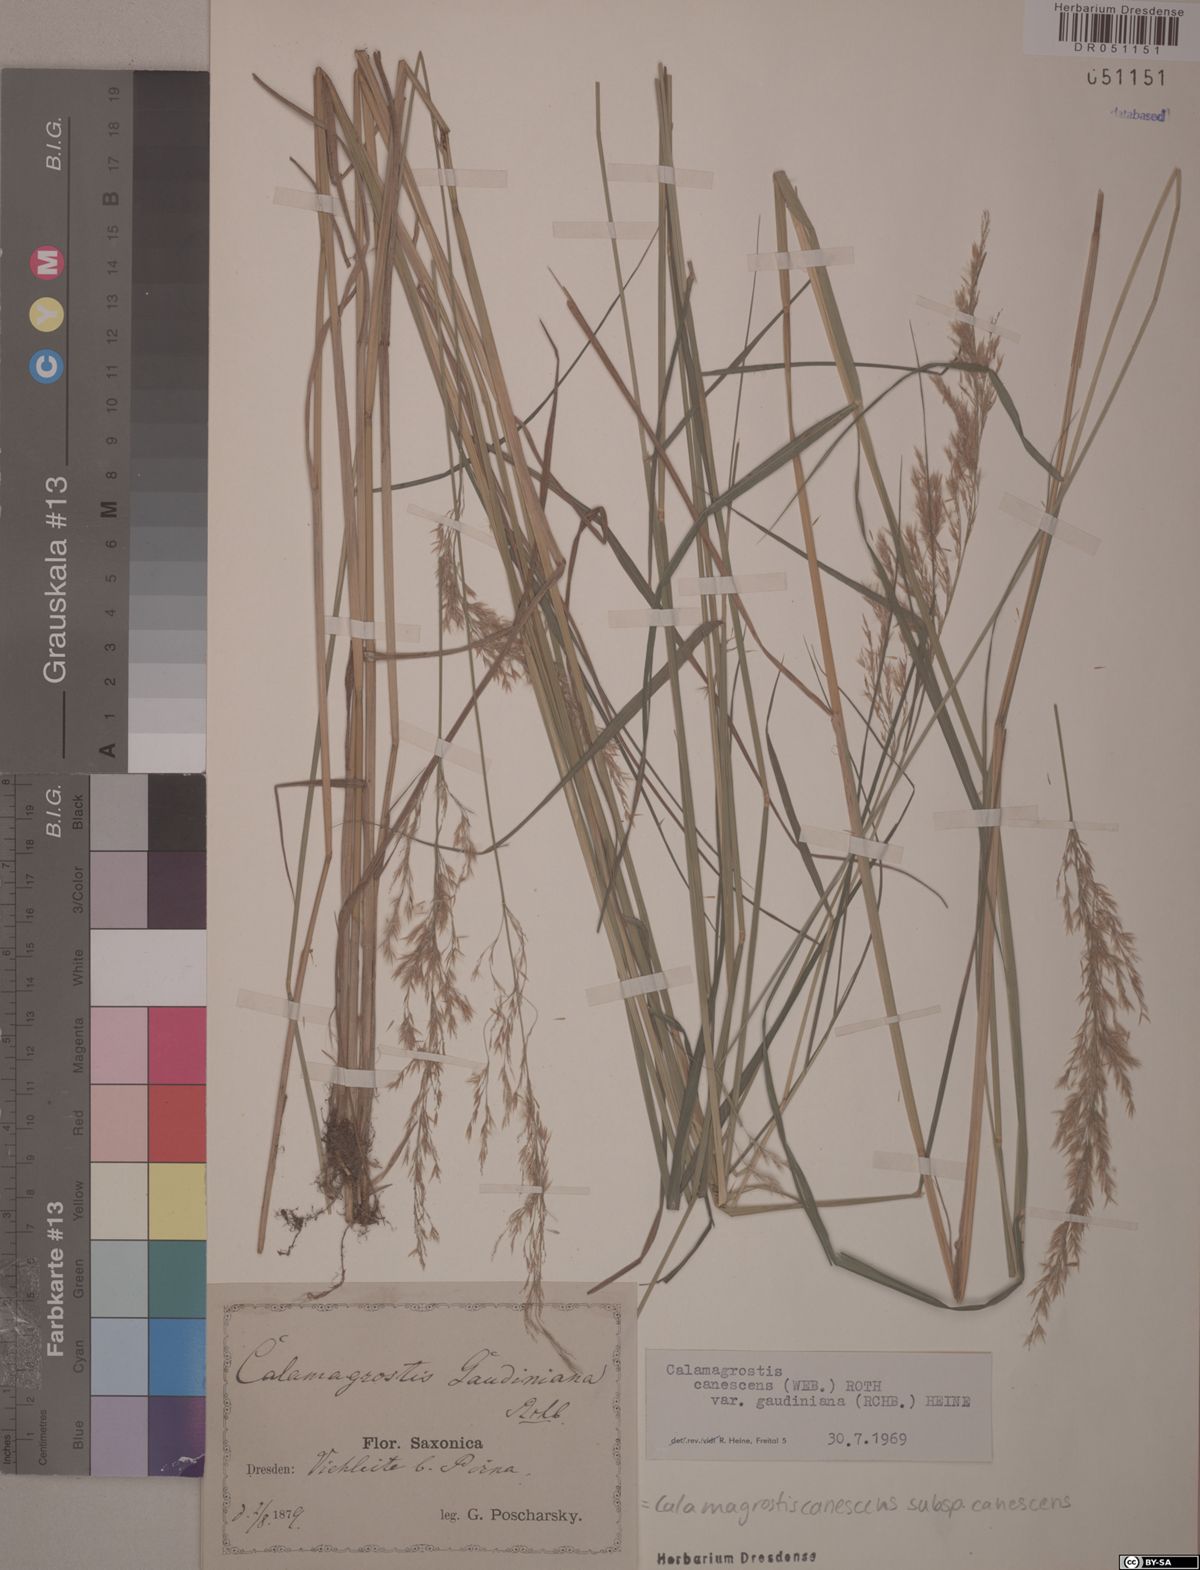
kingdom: Plantae
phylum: Tracheophyta
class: Liliopsida
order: Poales
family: Poaceae
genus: Calamagrostis
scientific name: Calamagrostis canescens
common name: Purple small-reed
